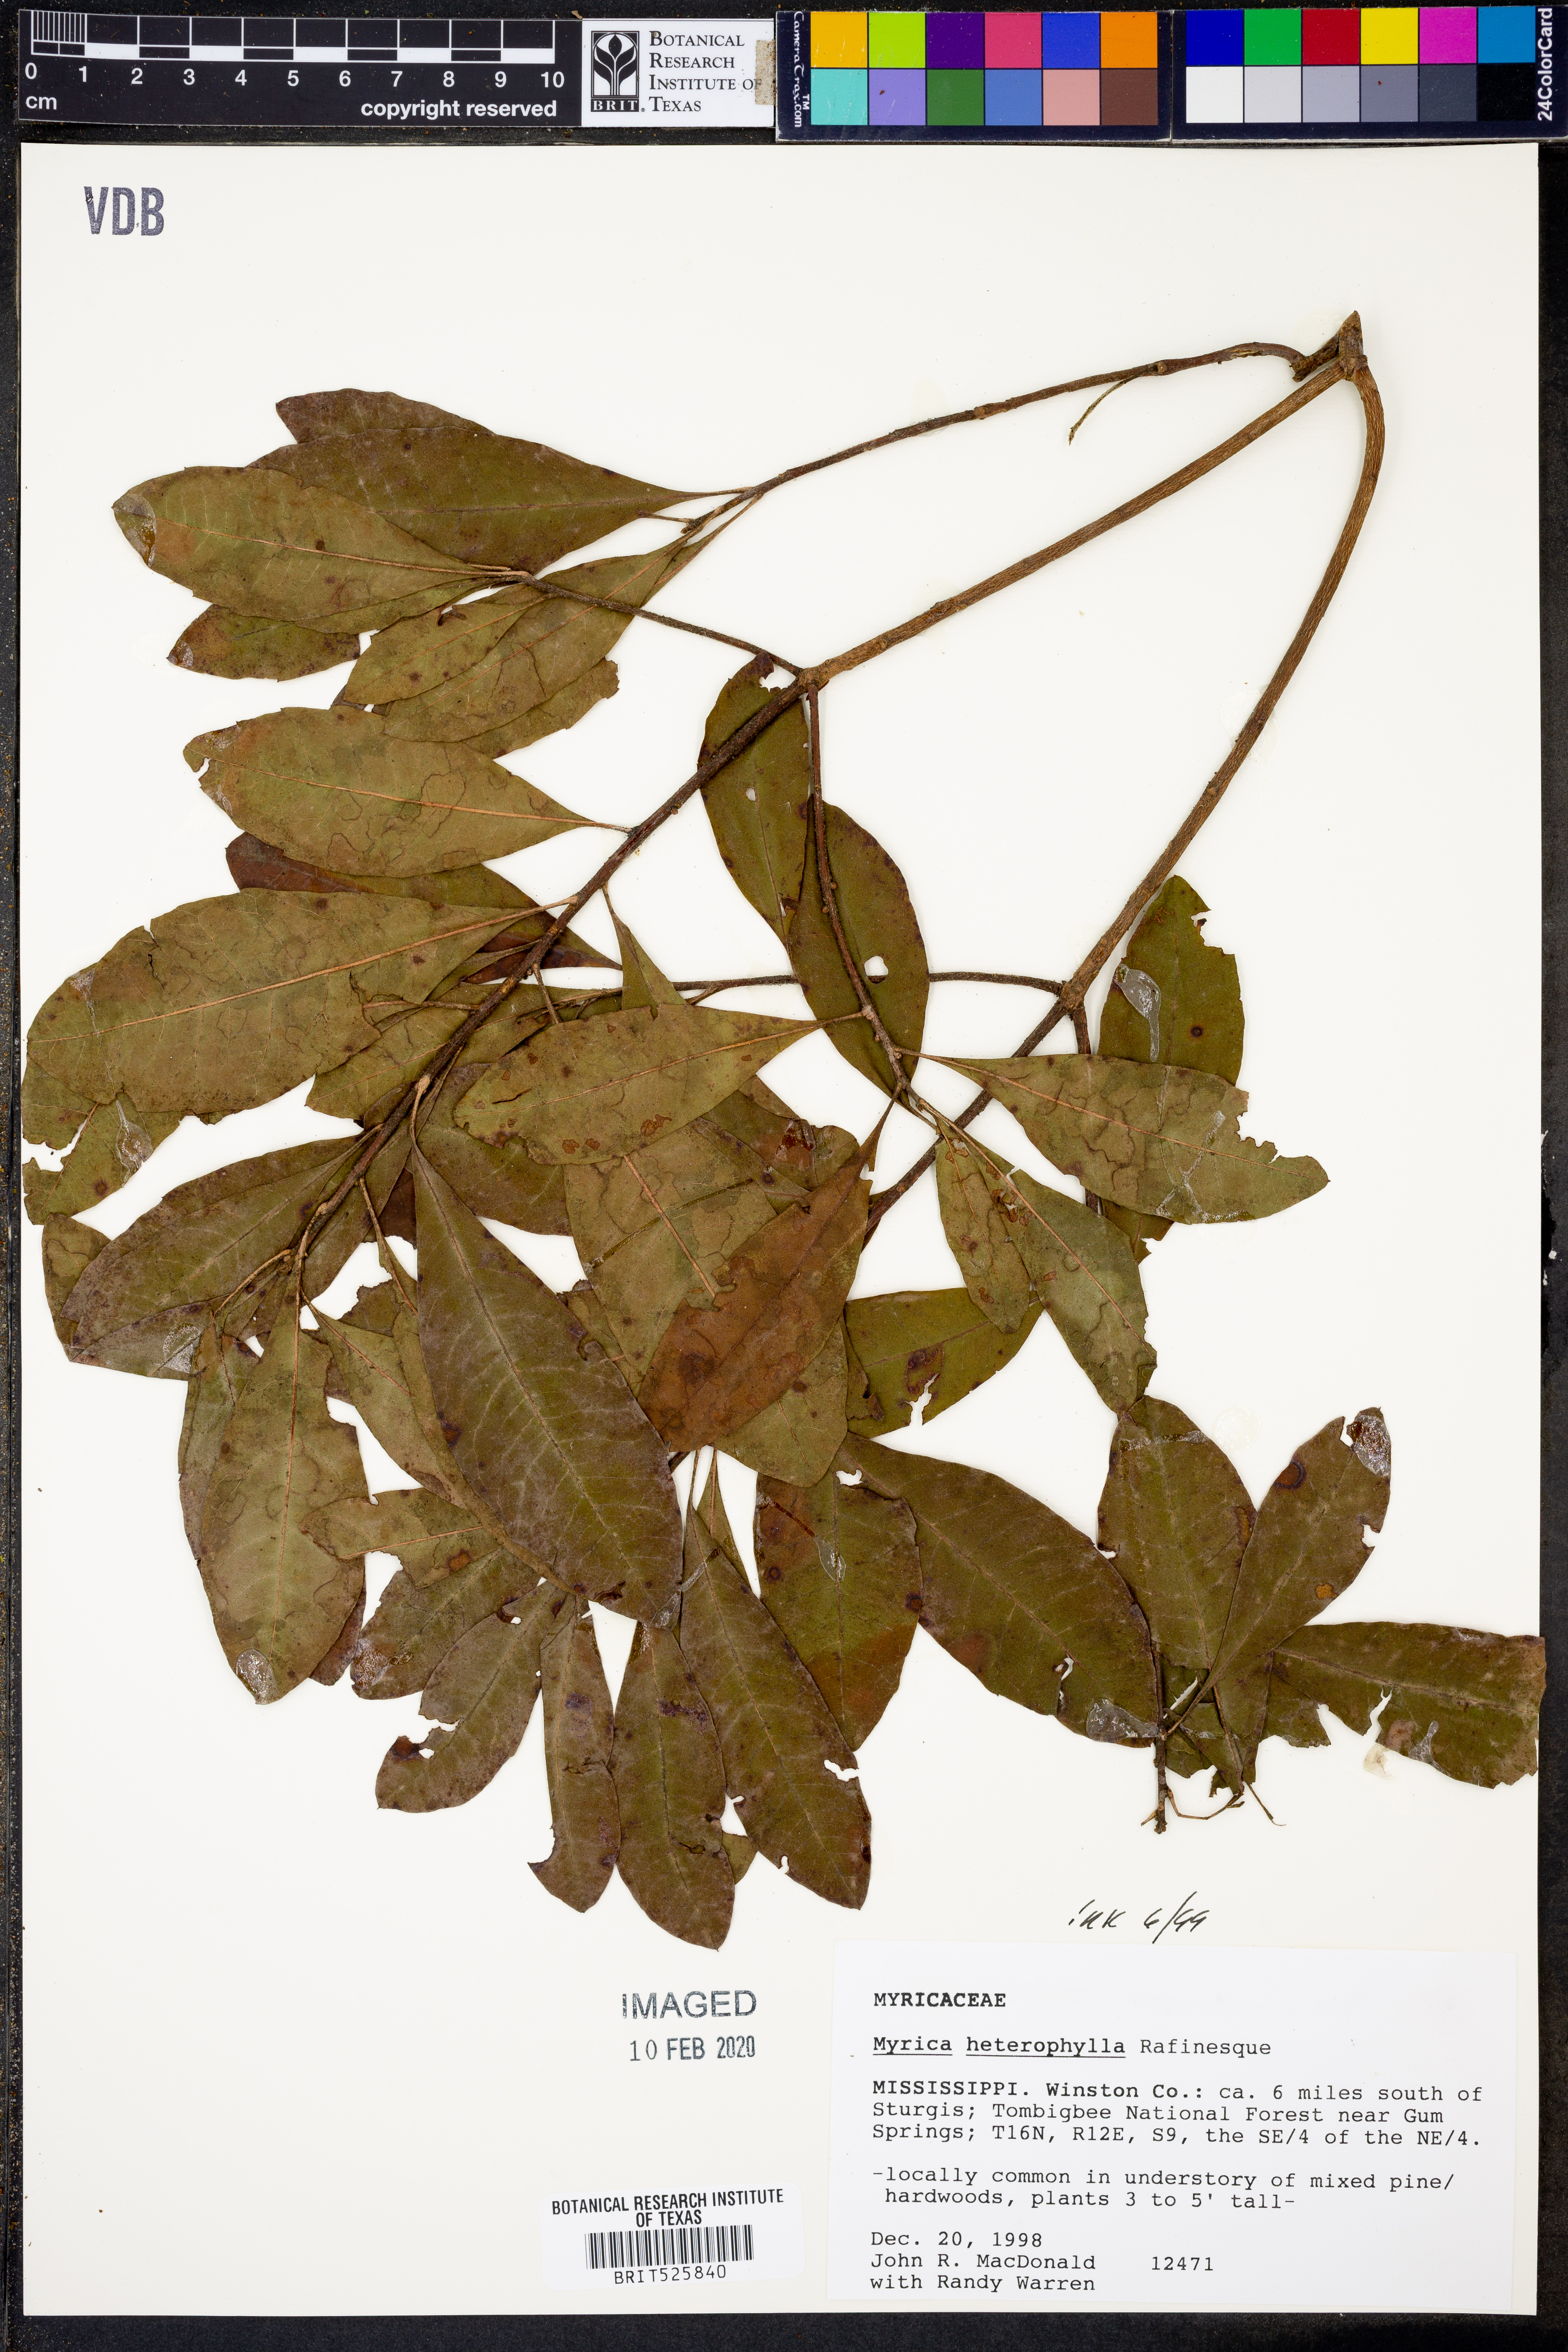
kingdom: Plantae
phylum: Tracheophyta
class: Magnoliopsida
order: Fagales
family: Myricaceae
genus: Morella
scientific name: Morella caroliniensis
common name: Evergreen bayberry
